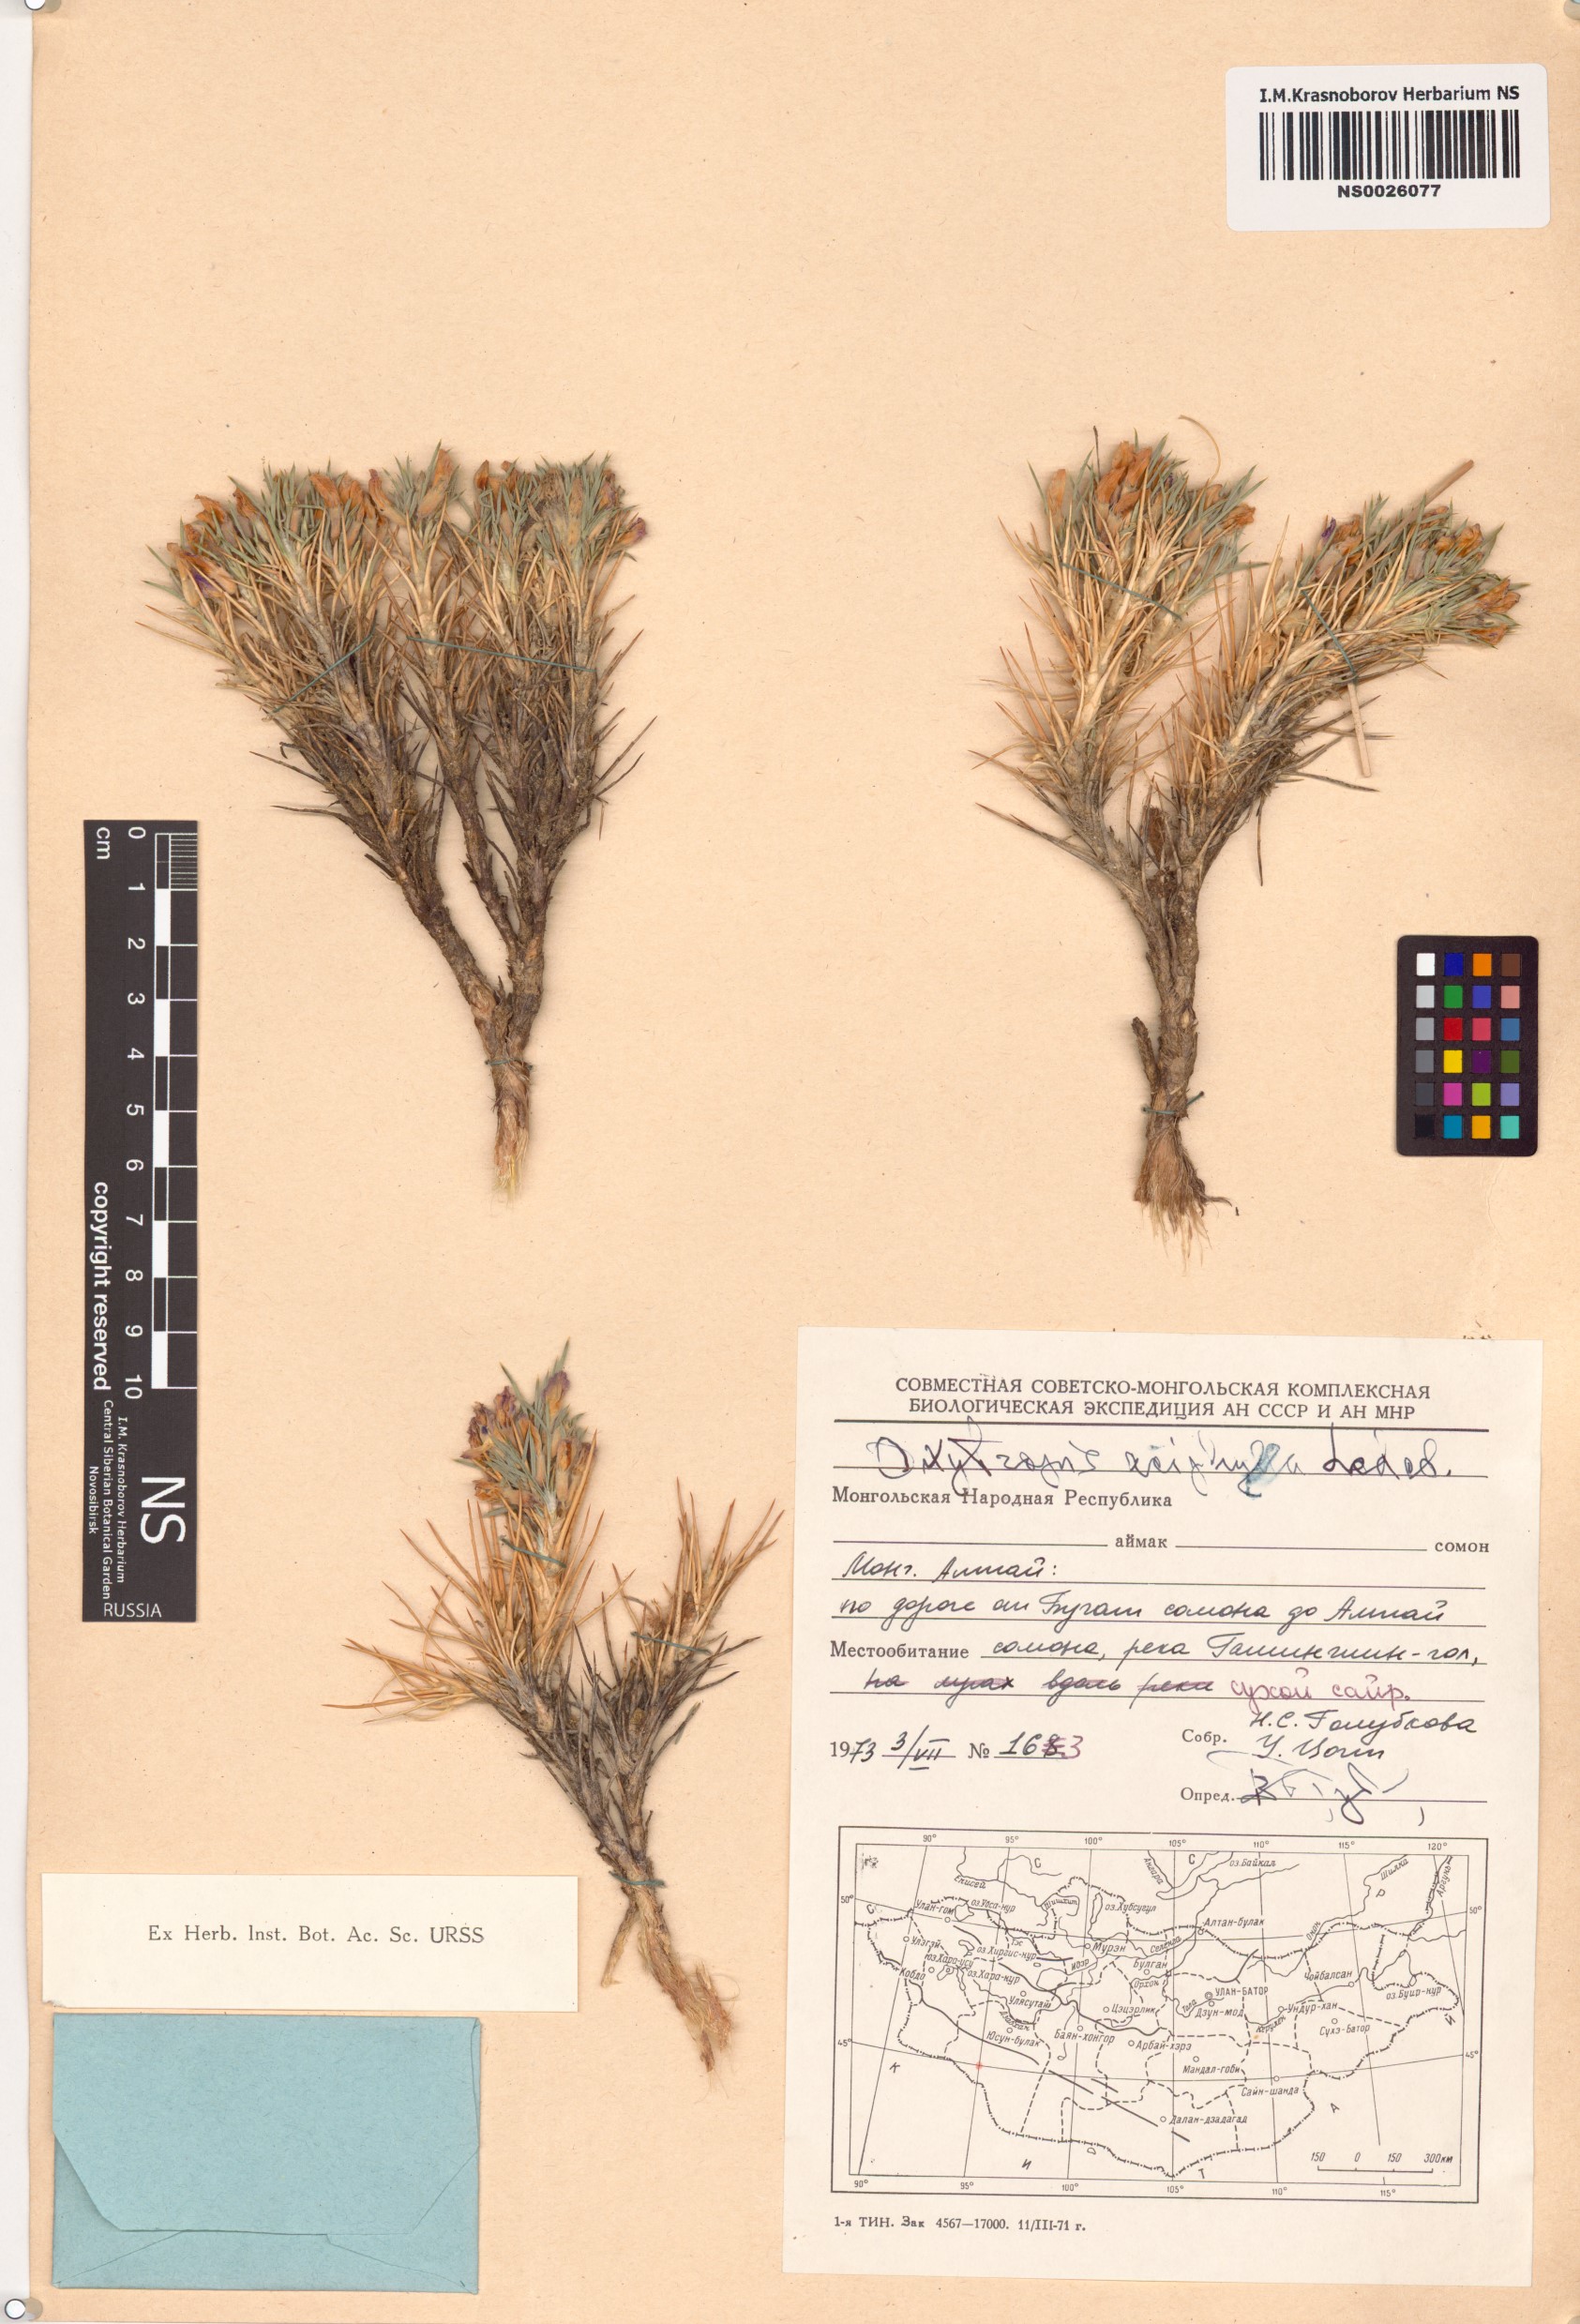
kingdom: Plantae
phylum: Tracheophyta
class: Magnoliopsida
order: Fabales
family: Fabaceae
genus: Oxytropis
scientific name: Oxytropis aciphylla
